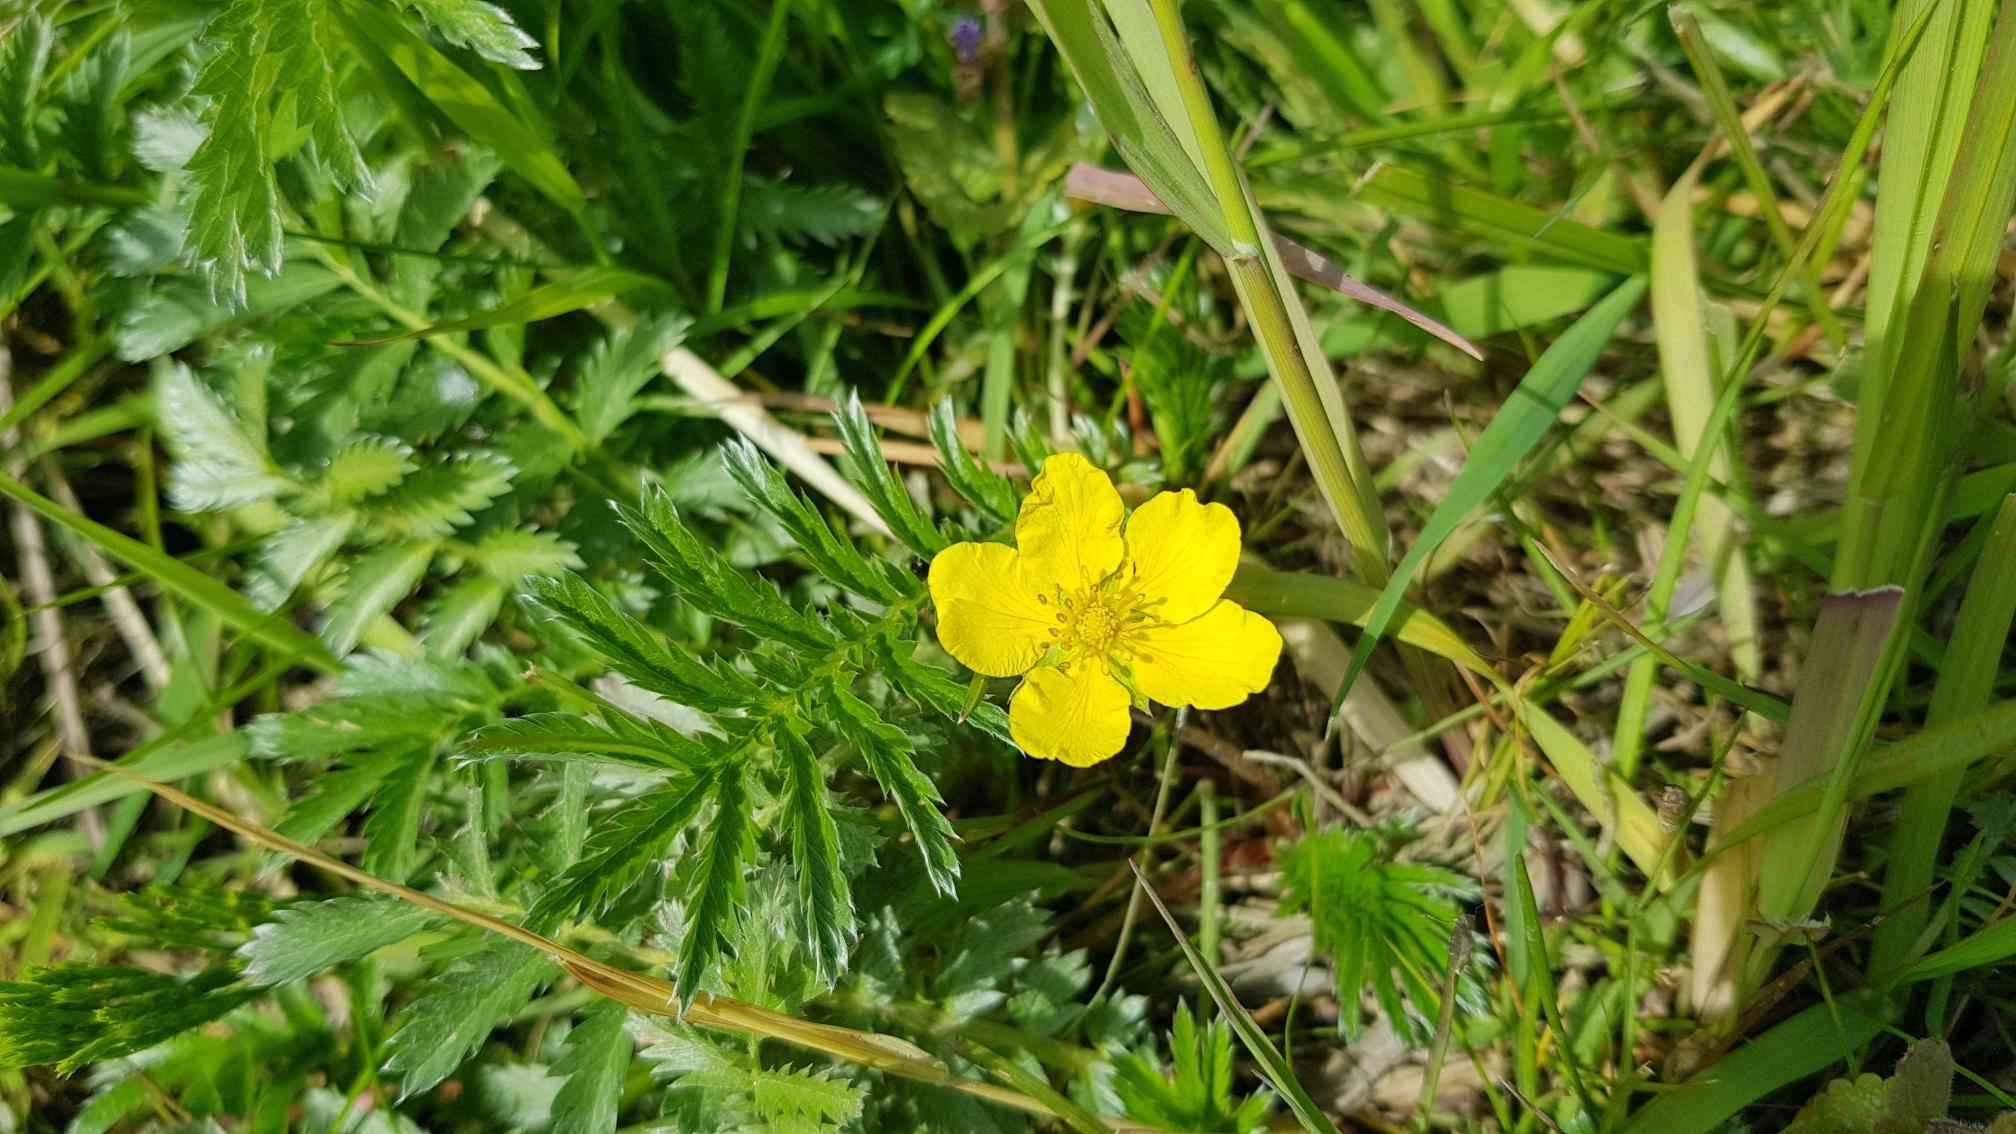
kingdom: Plantae
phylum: Tracheophyta
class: Magnoliopsida
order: Rosales
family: Rosaceae
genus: Argentina
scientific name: Argentina anserina
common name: Gåsepotentil
